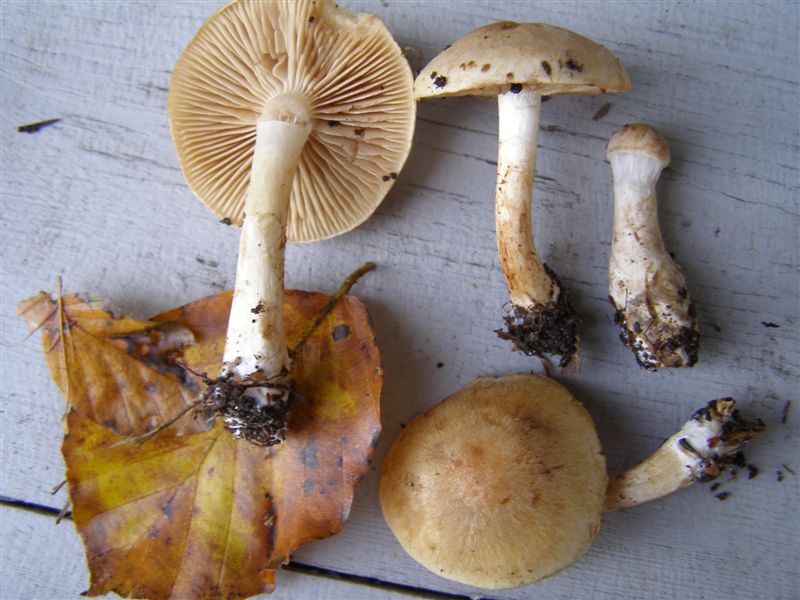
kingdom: Fungi
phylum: Basidiomycota
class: Agaricomycetes
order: Agaricales
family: Cortinariaceae
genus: Cortinarius
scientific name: Cortinarius anomalus
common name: Variable webcap
